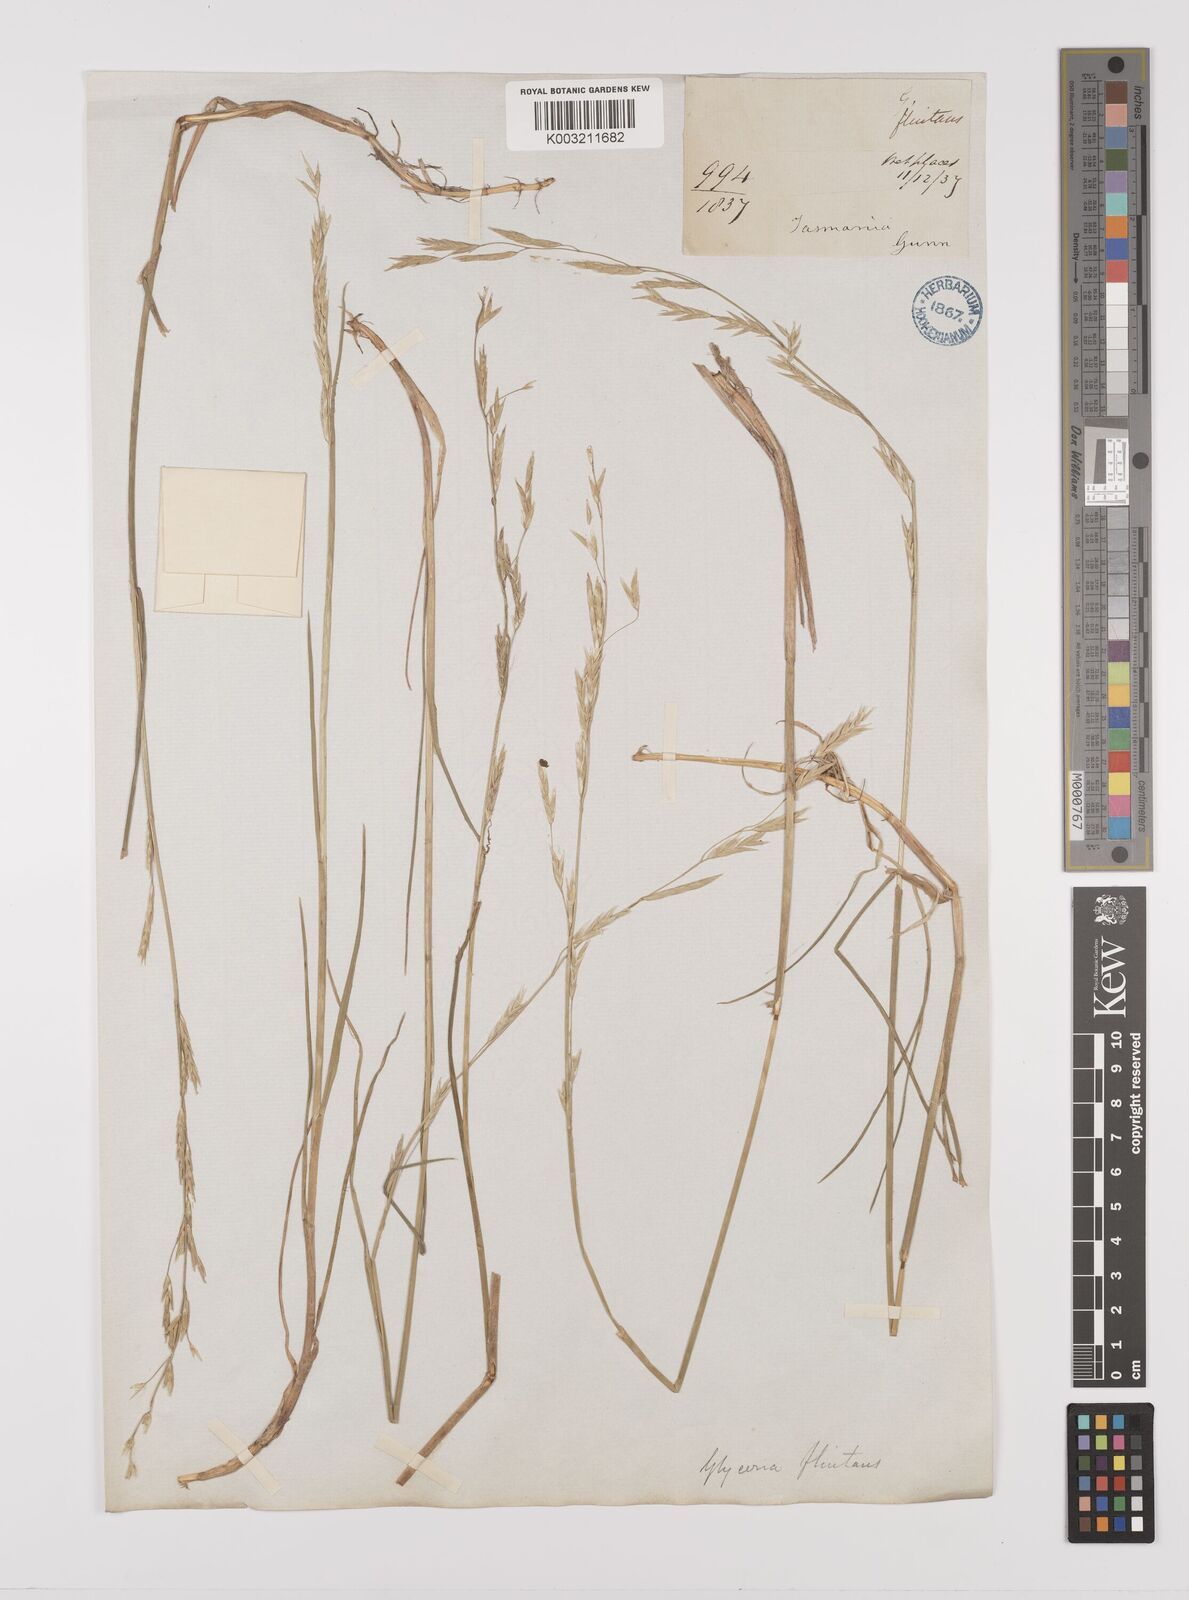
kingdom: Plantae
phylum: Tracheophyta
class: Liliopsida
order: Poales
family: Poaceae
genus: Glyceria
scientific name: Glyceria australis
